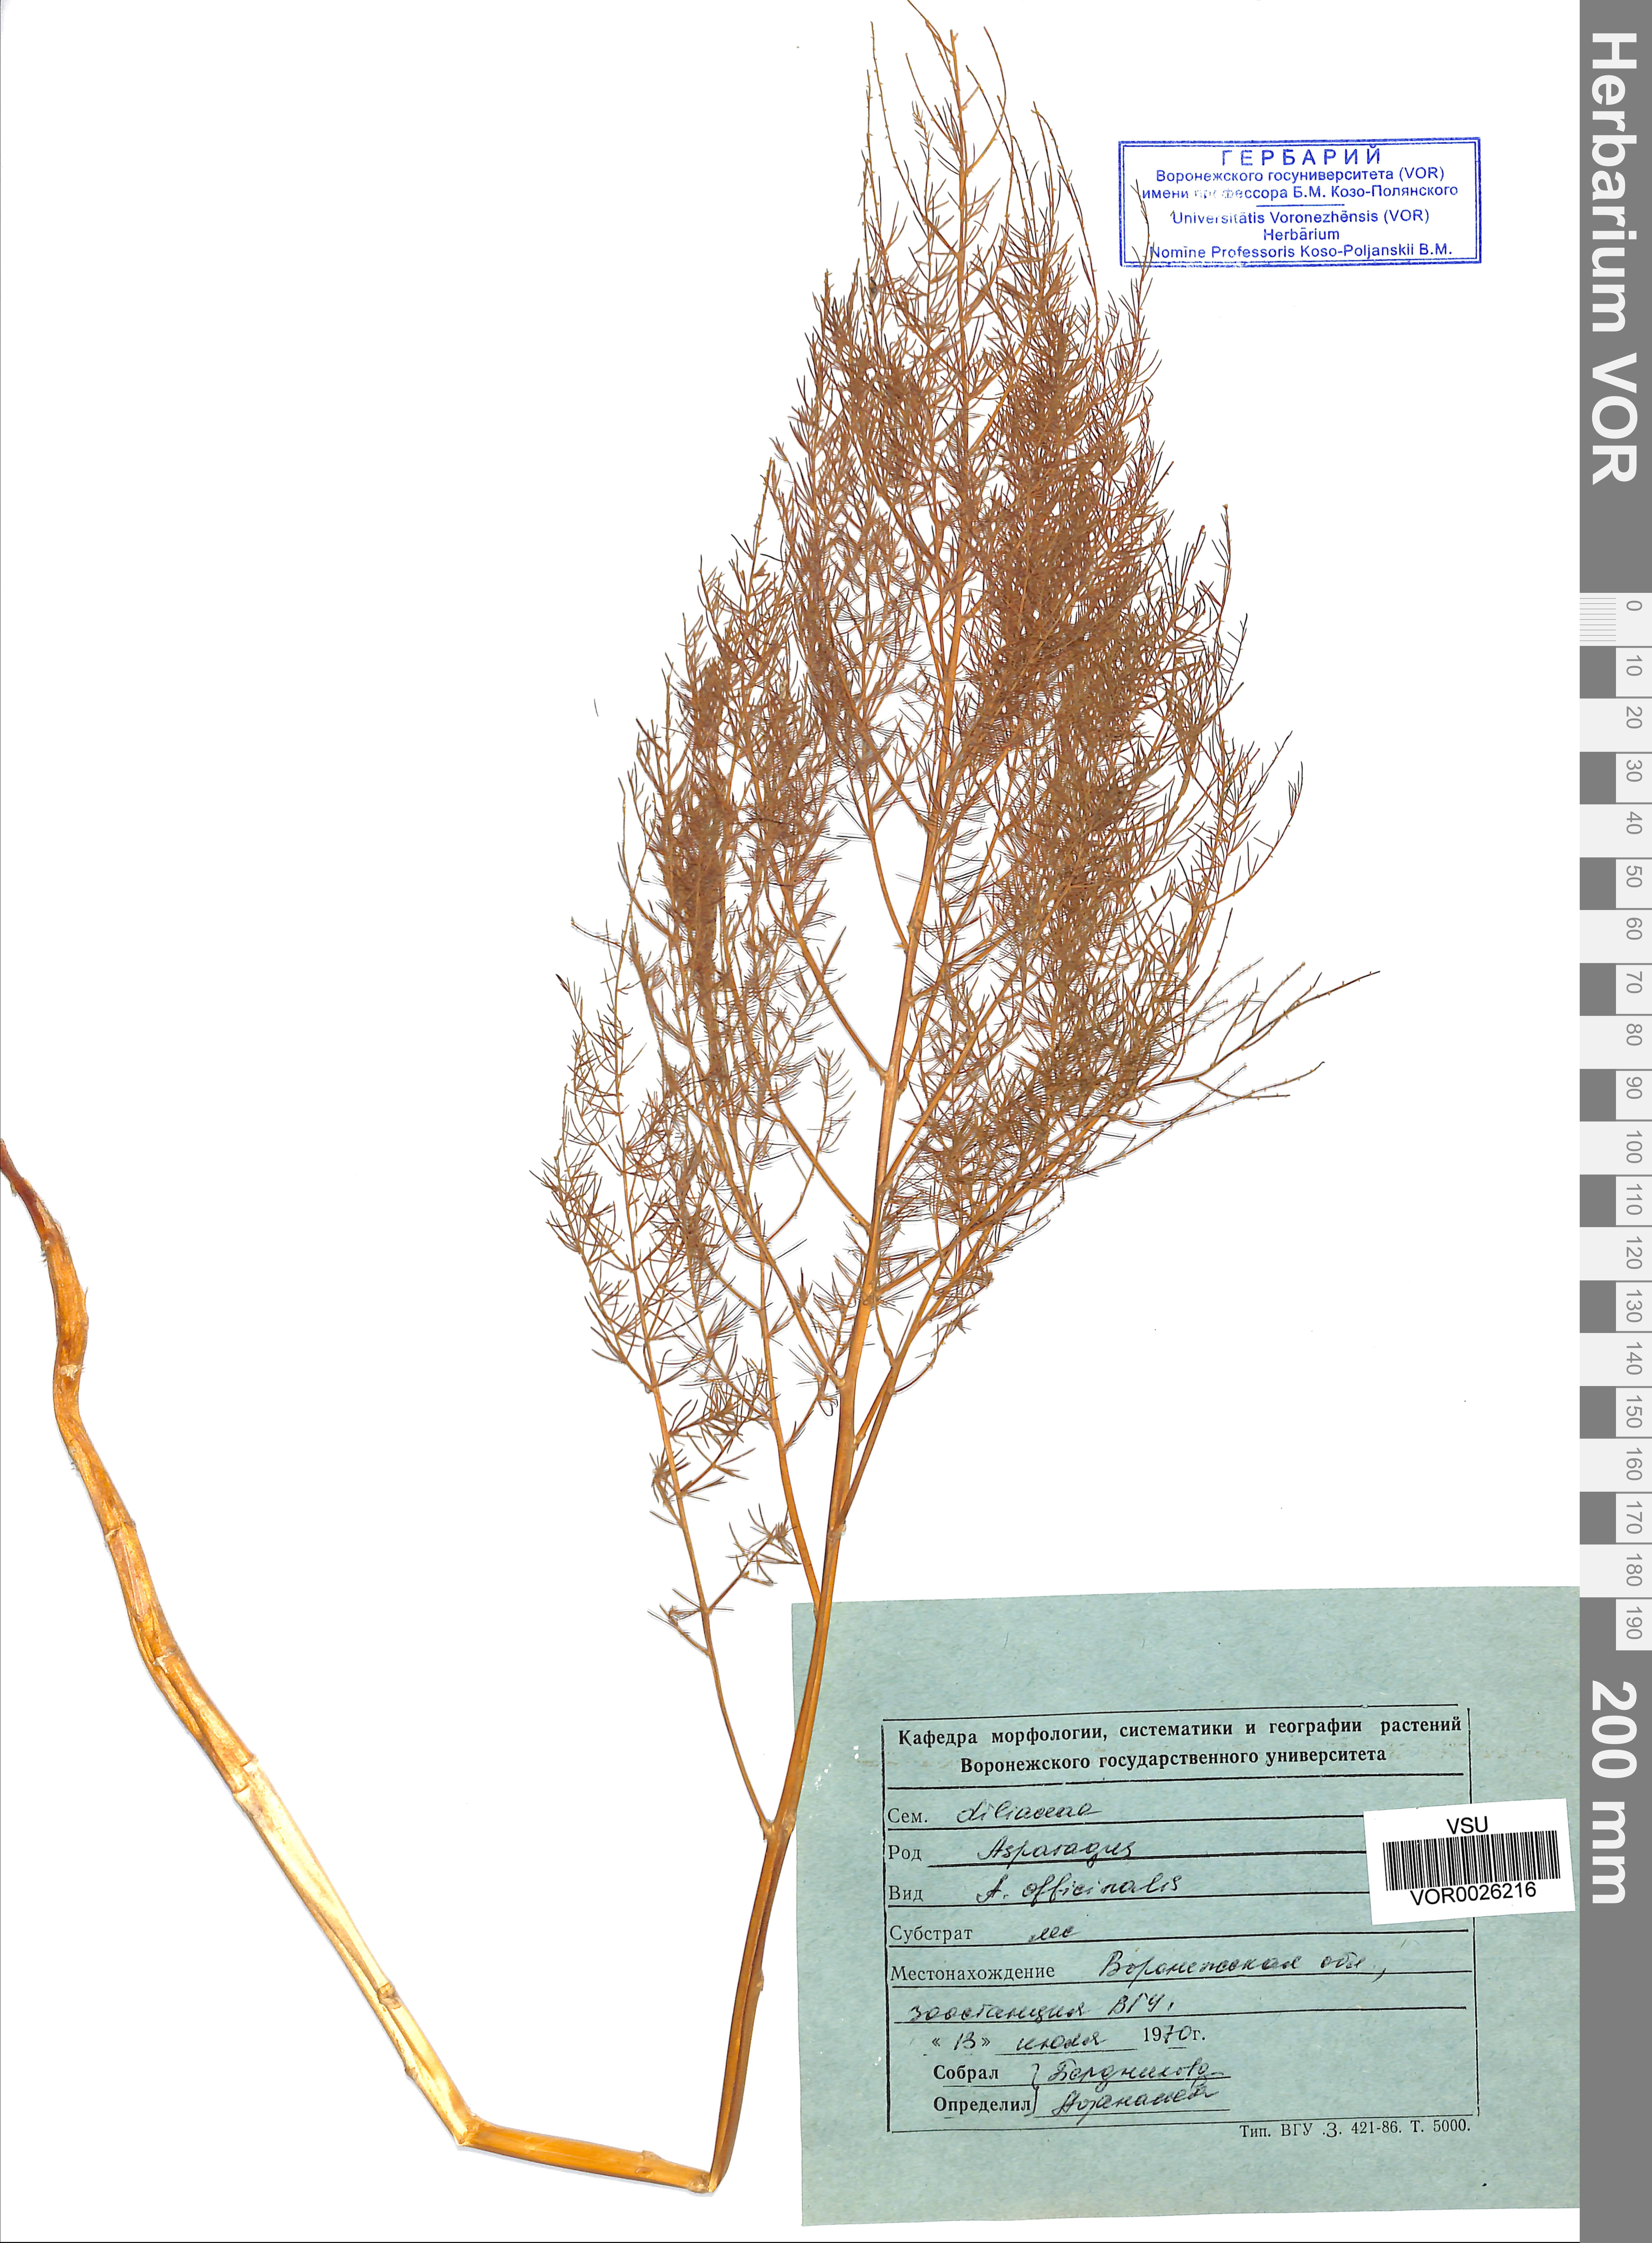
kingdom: Plantae
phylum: Tracheophyta
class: Liliopsida
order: Asparagales
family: Asparagaceae
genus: Asparagus
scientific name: Asparagus officinalis
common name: Garden asparagus
